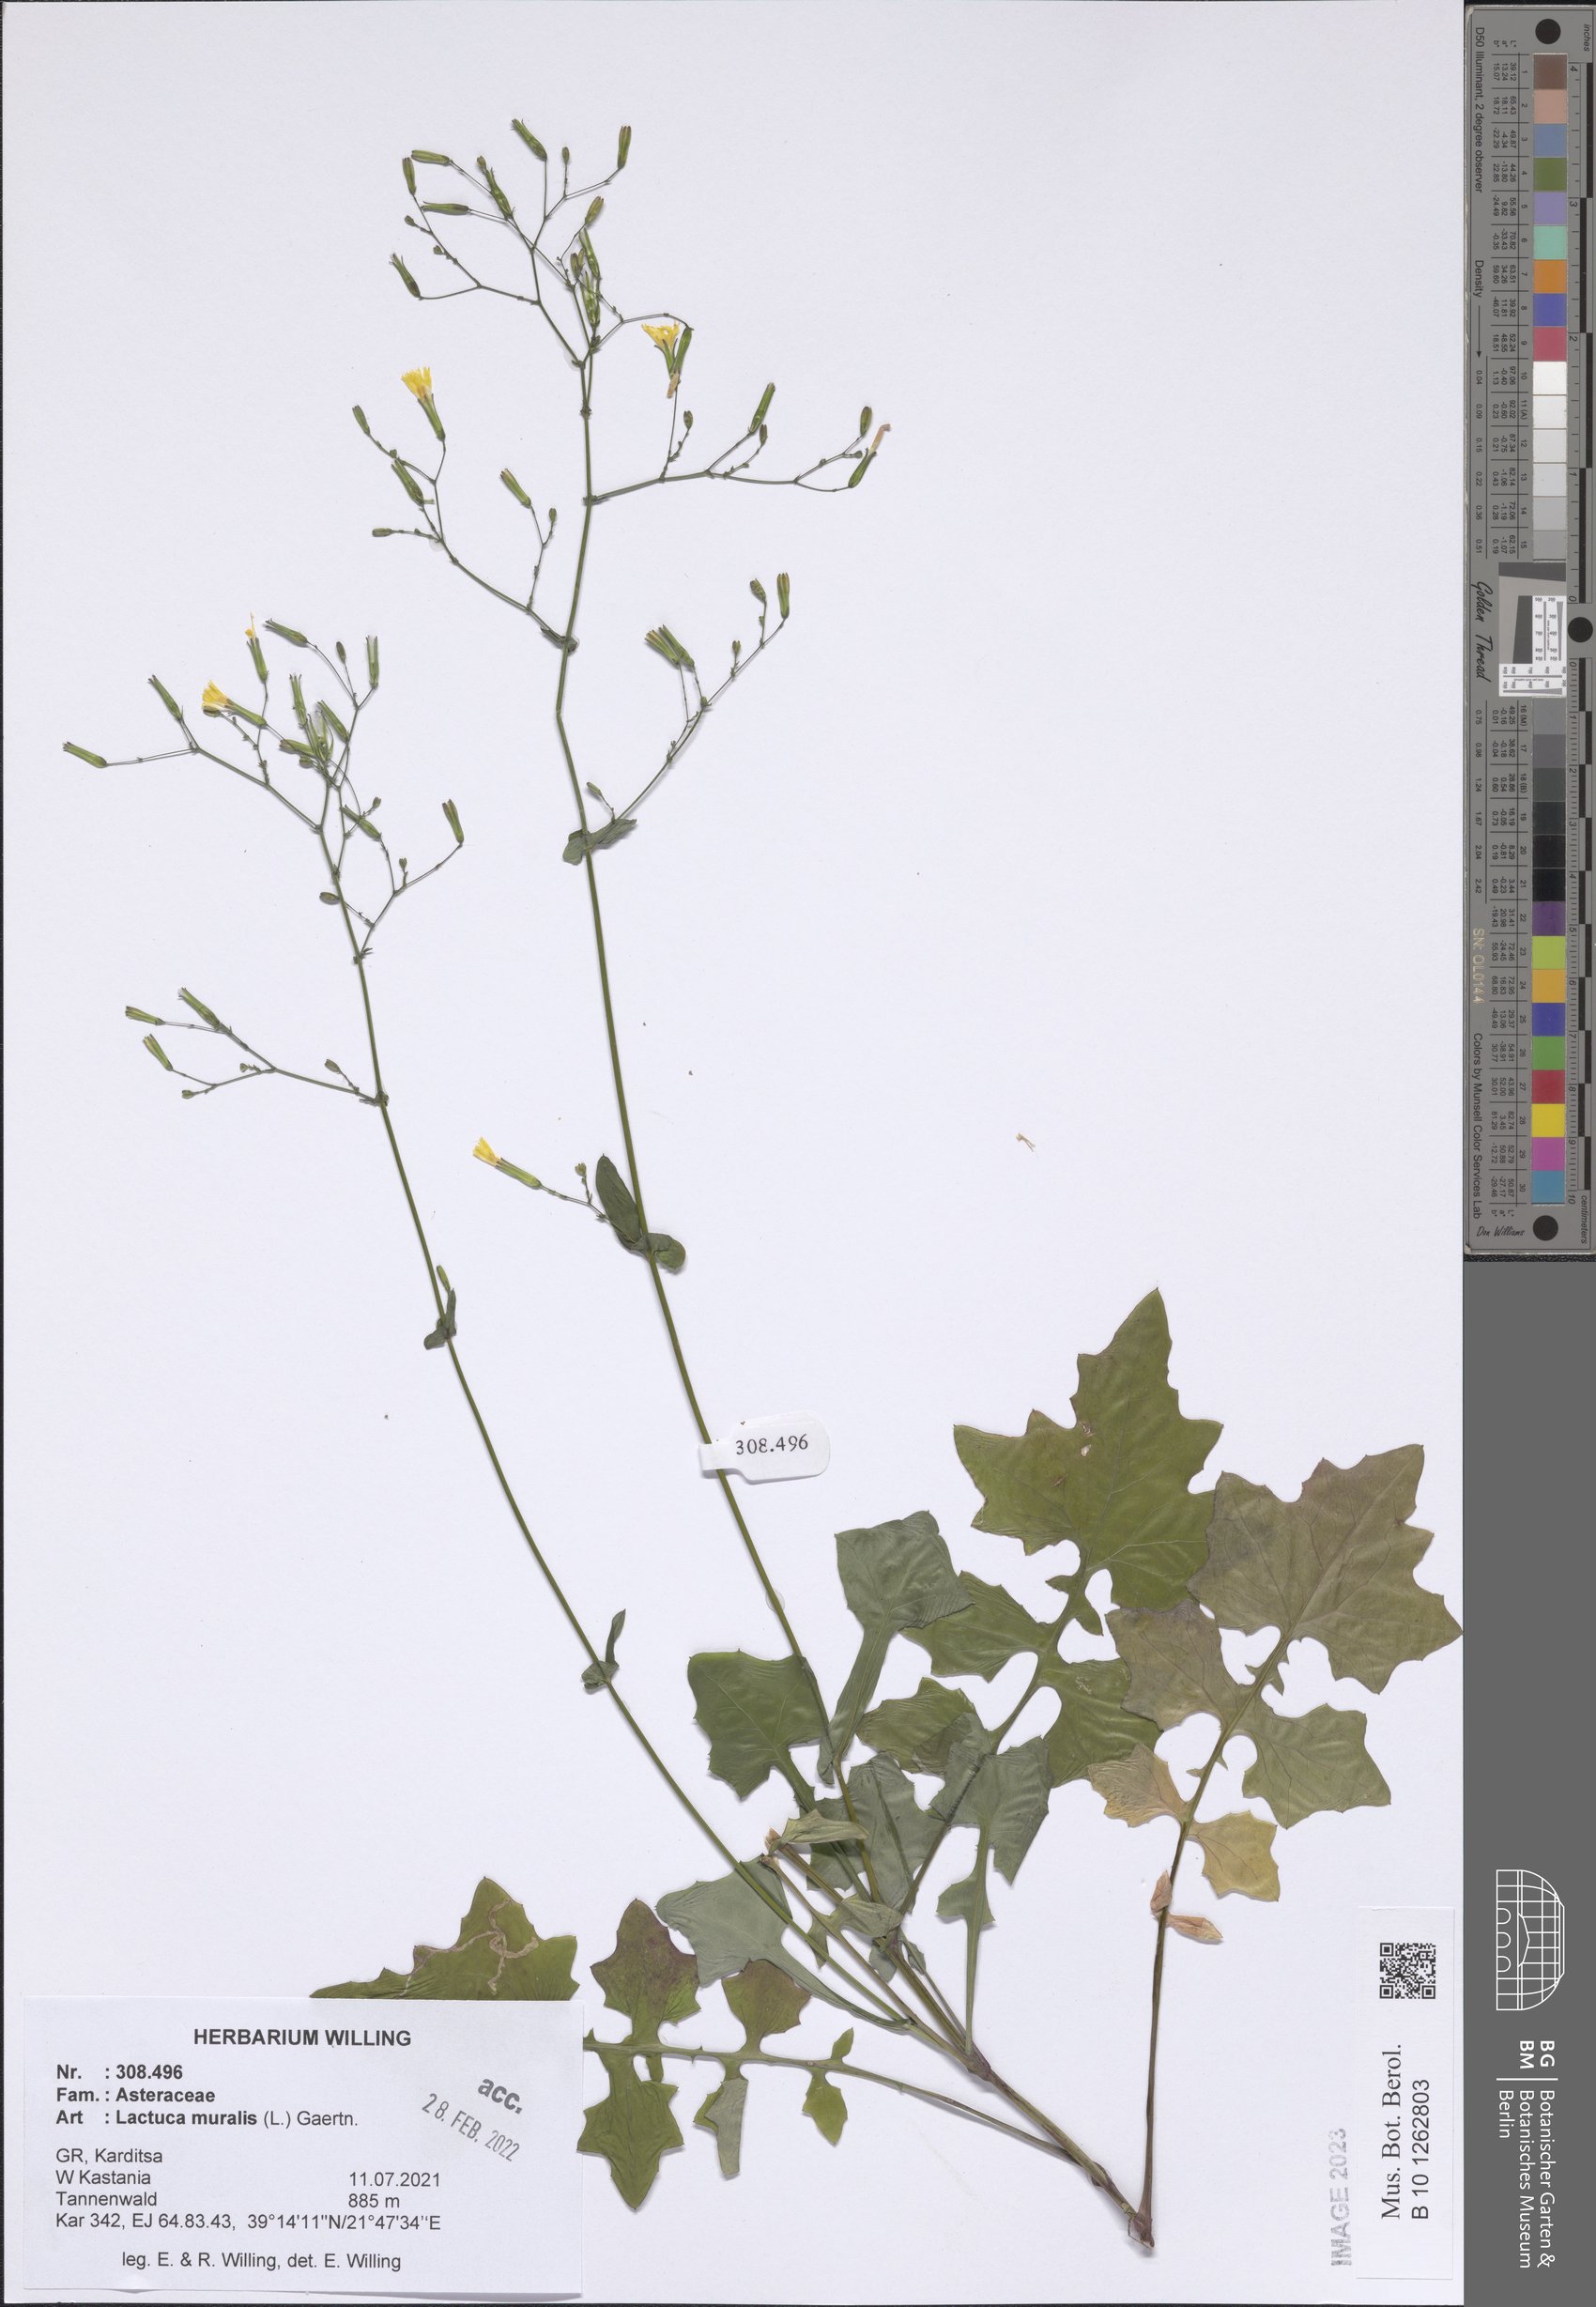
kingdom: Plantae
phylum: Tracheophyta
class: Magnoliopsida
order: Asterales
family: Asteraceae
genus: Mycelis
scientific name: Mycelis muralis
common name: Wall lettuce
